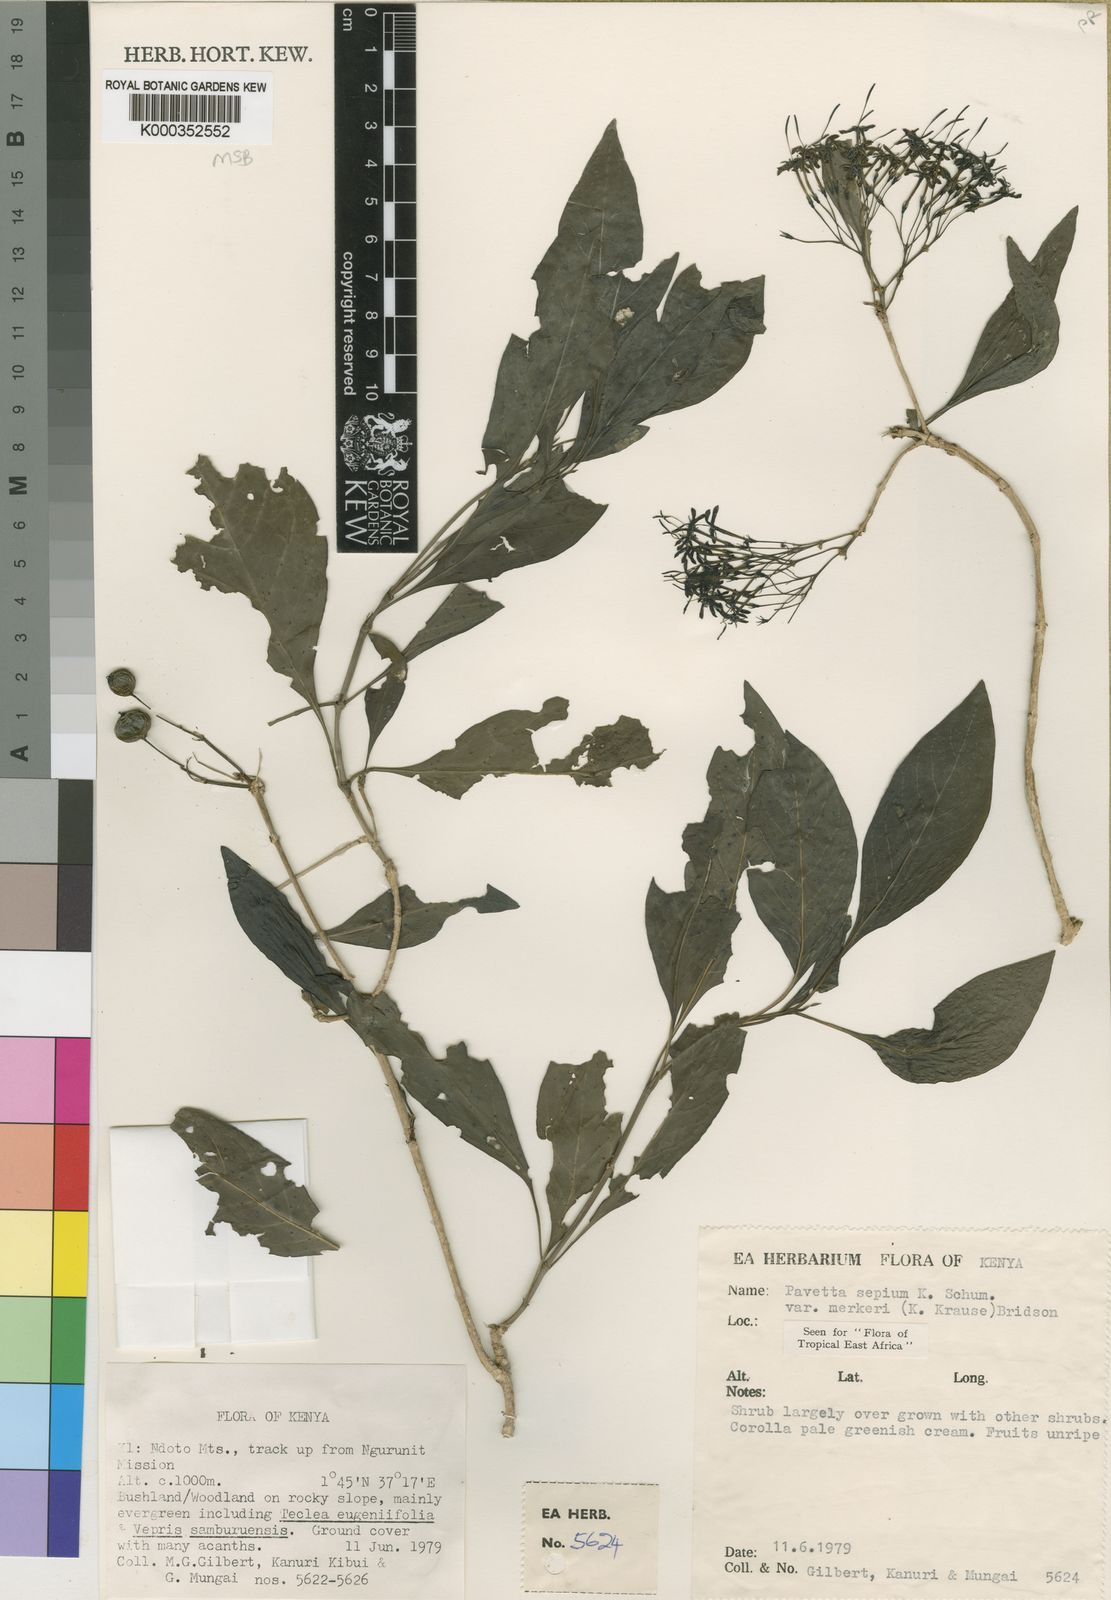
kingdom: Plantae
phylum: Tracheophyta
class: Magnoliopsida
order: Gentianales
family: Rubiaceae
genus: Pavetta
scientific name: Pavetta sepium
